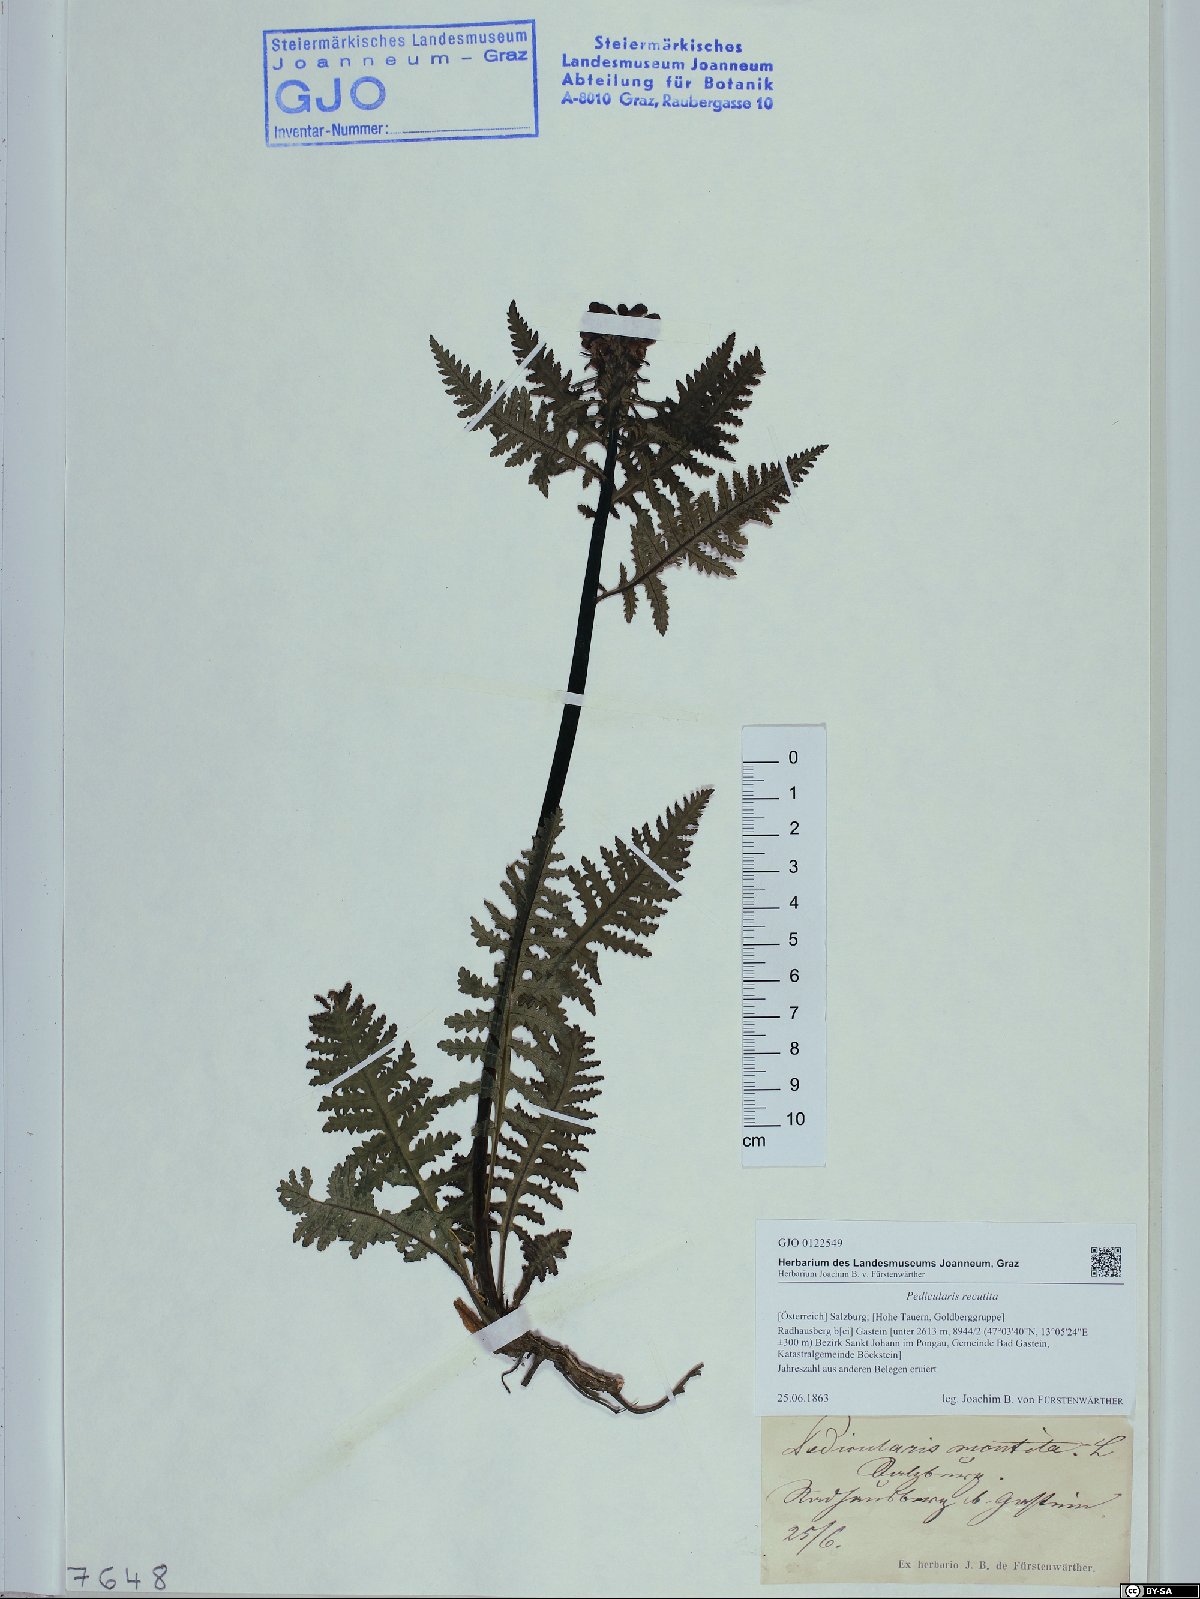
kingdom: Plantae
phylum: Tracheophyta
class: Magnoliopsida
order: Lamiales
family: Orobanchaceae
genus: Pedicularis
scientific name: Pedicularis recutita
